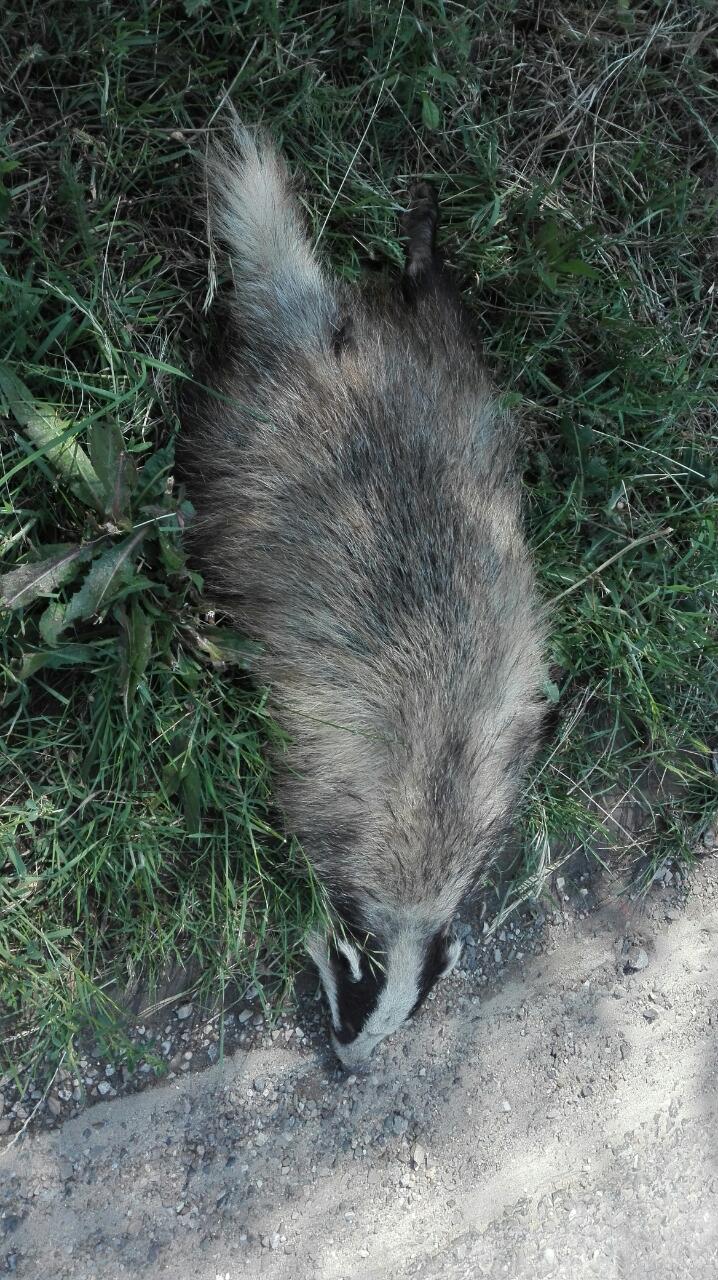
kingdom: Animalia
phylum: Chordata
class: Mammalia
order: Carnivora
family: Mustelidae
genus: Meles
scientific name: Meles meles
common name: Eurasian badger
